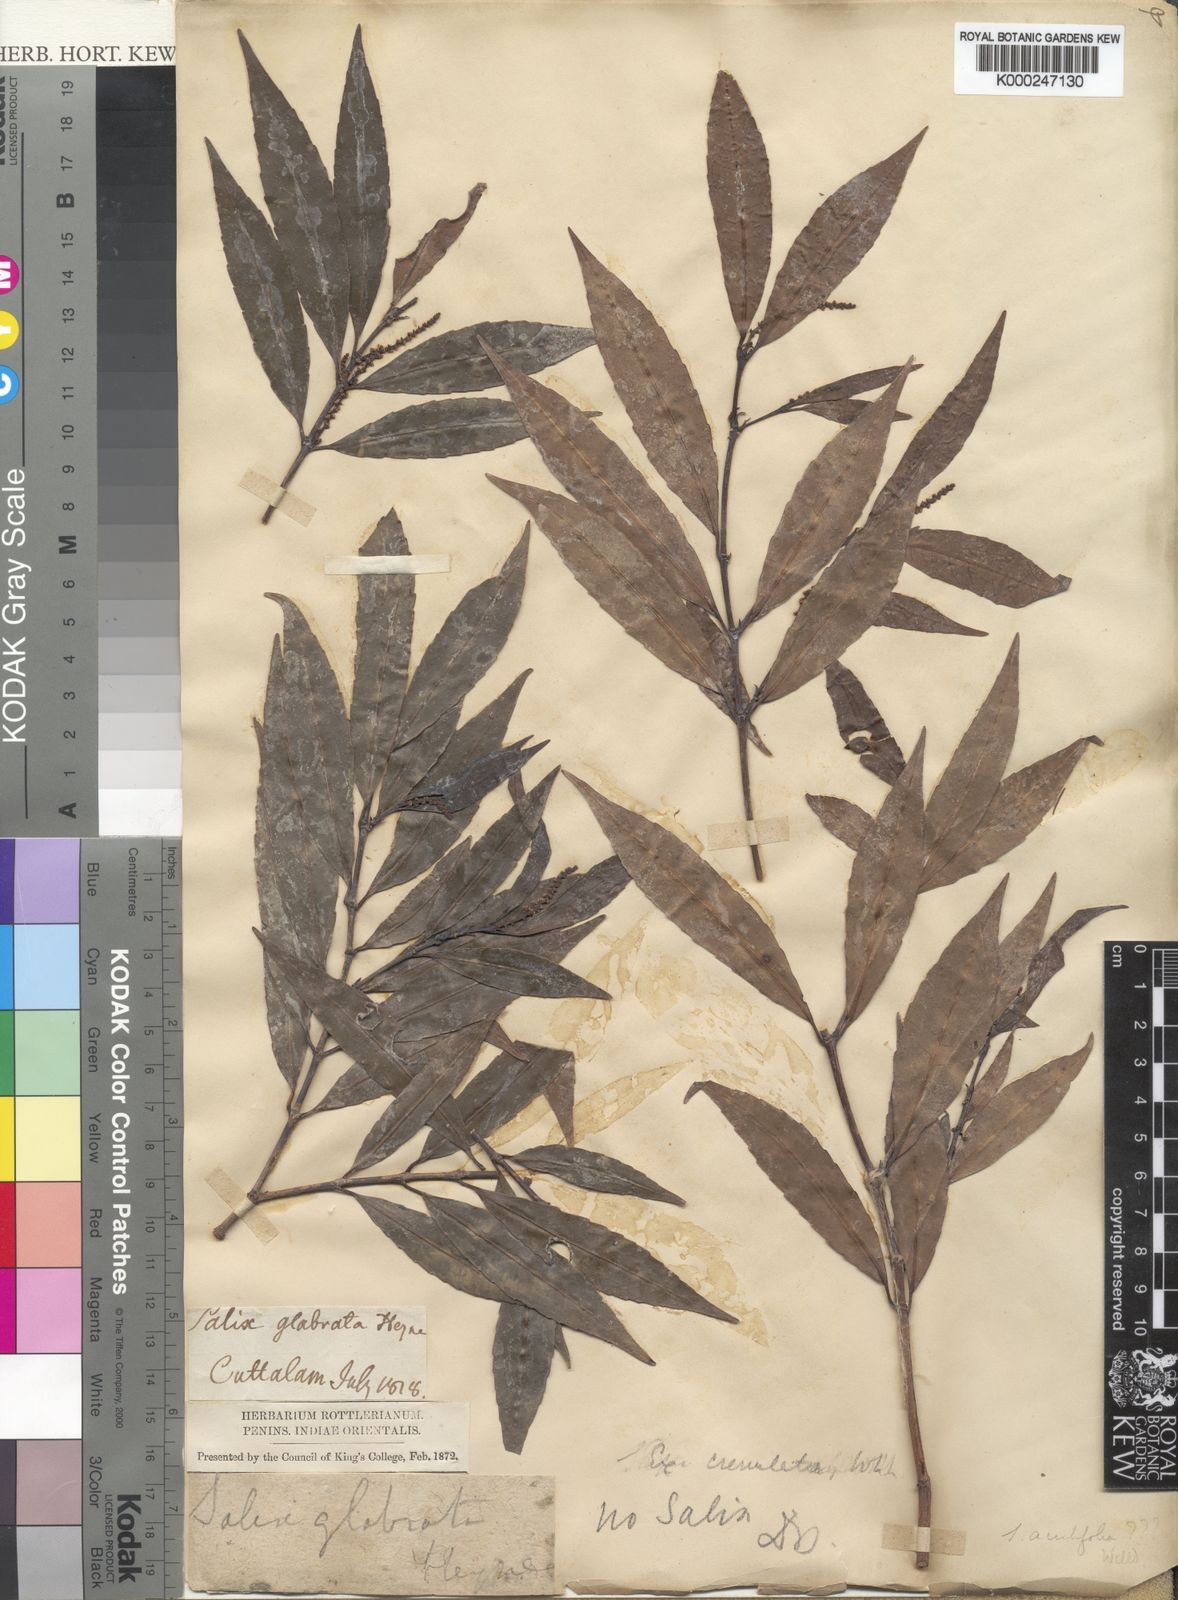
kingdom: Plantae
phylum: Tracheophyta
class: Magnoliopsida
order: Malpighiales
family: Euphorbiaceae
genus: Excoecaria
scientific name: Excoecaria oppositifolia
